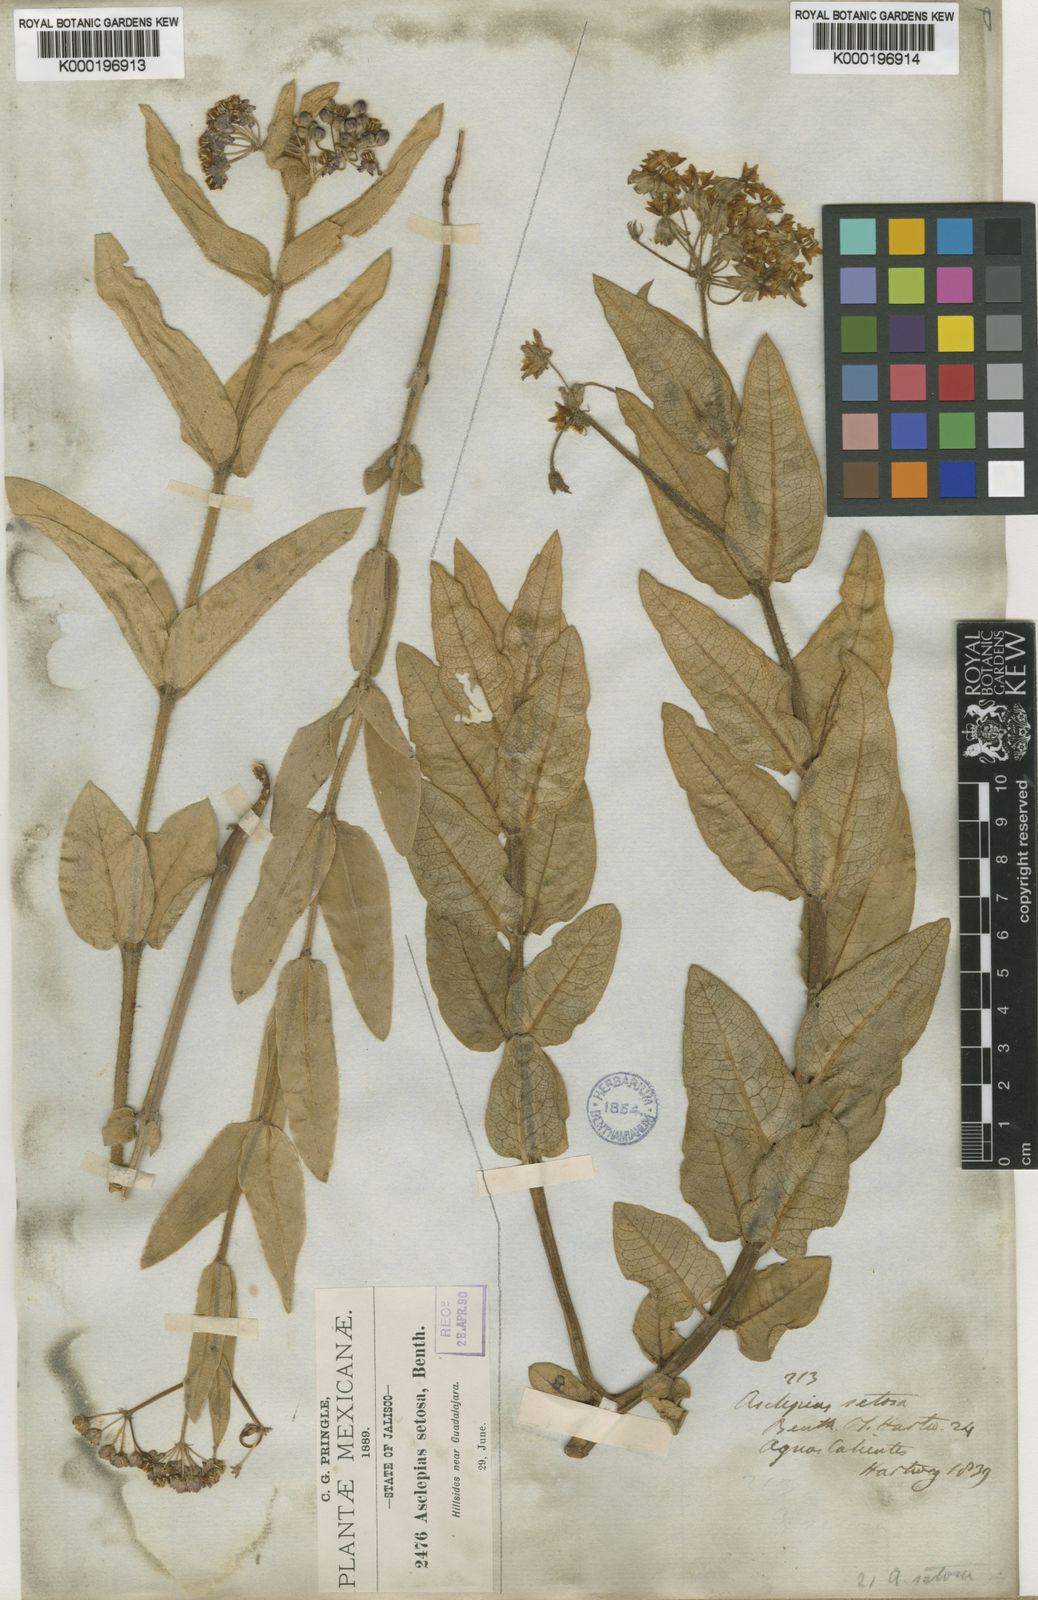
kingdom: Plantae
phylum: Tracheophyta
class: Magnoliopsida
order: Gentianales
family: Apocynaceae
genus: Asclepias
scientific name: Asclepias
